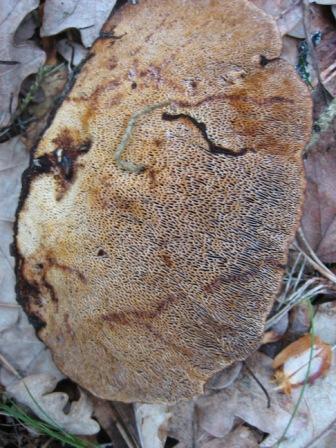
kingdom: Fungi
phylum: Basidiomycota
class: Agaricomycetes
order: Polyporales
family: Polyporaceae
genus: Daedaleopsis
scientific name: Daedaleopsis confragosa
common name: rødmende læderporesvamp
